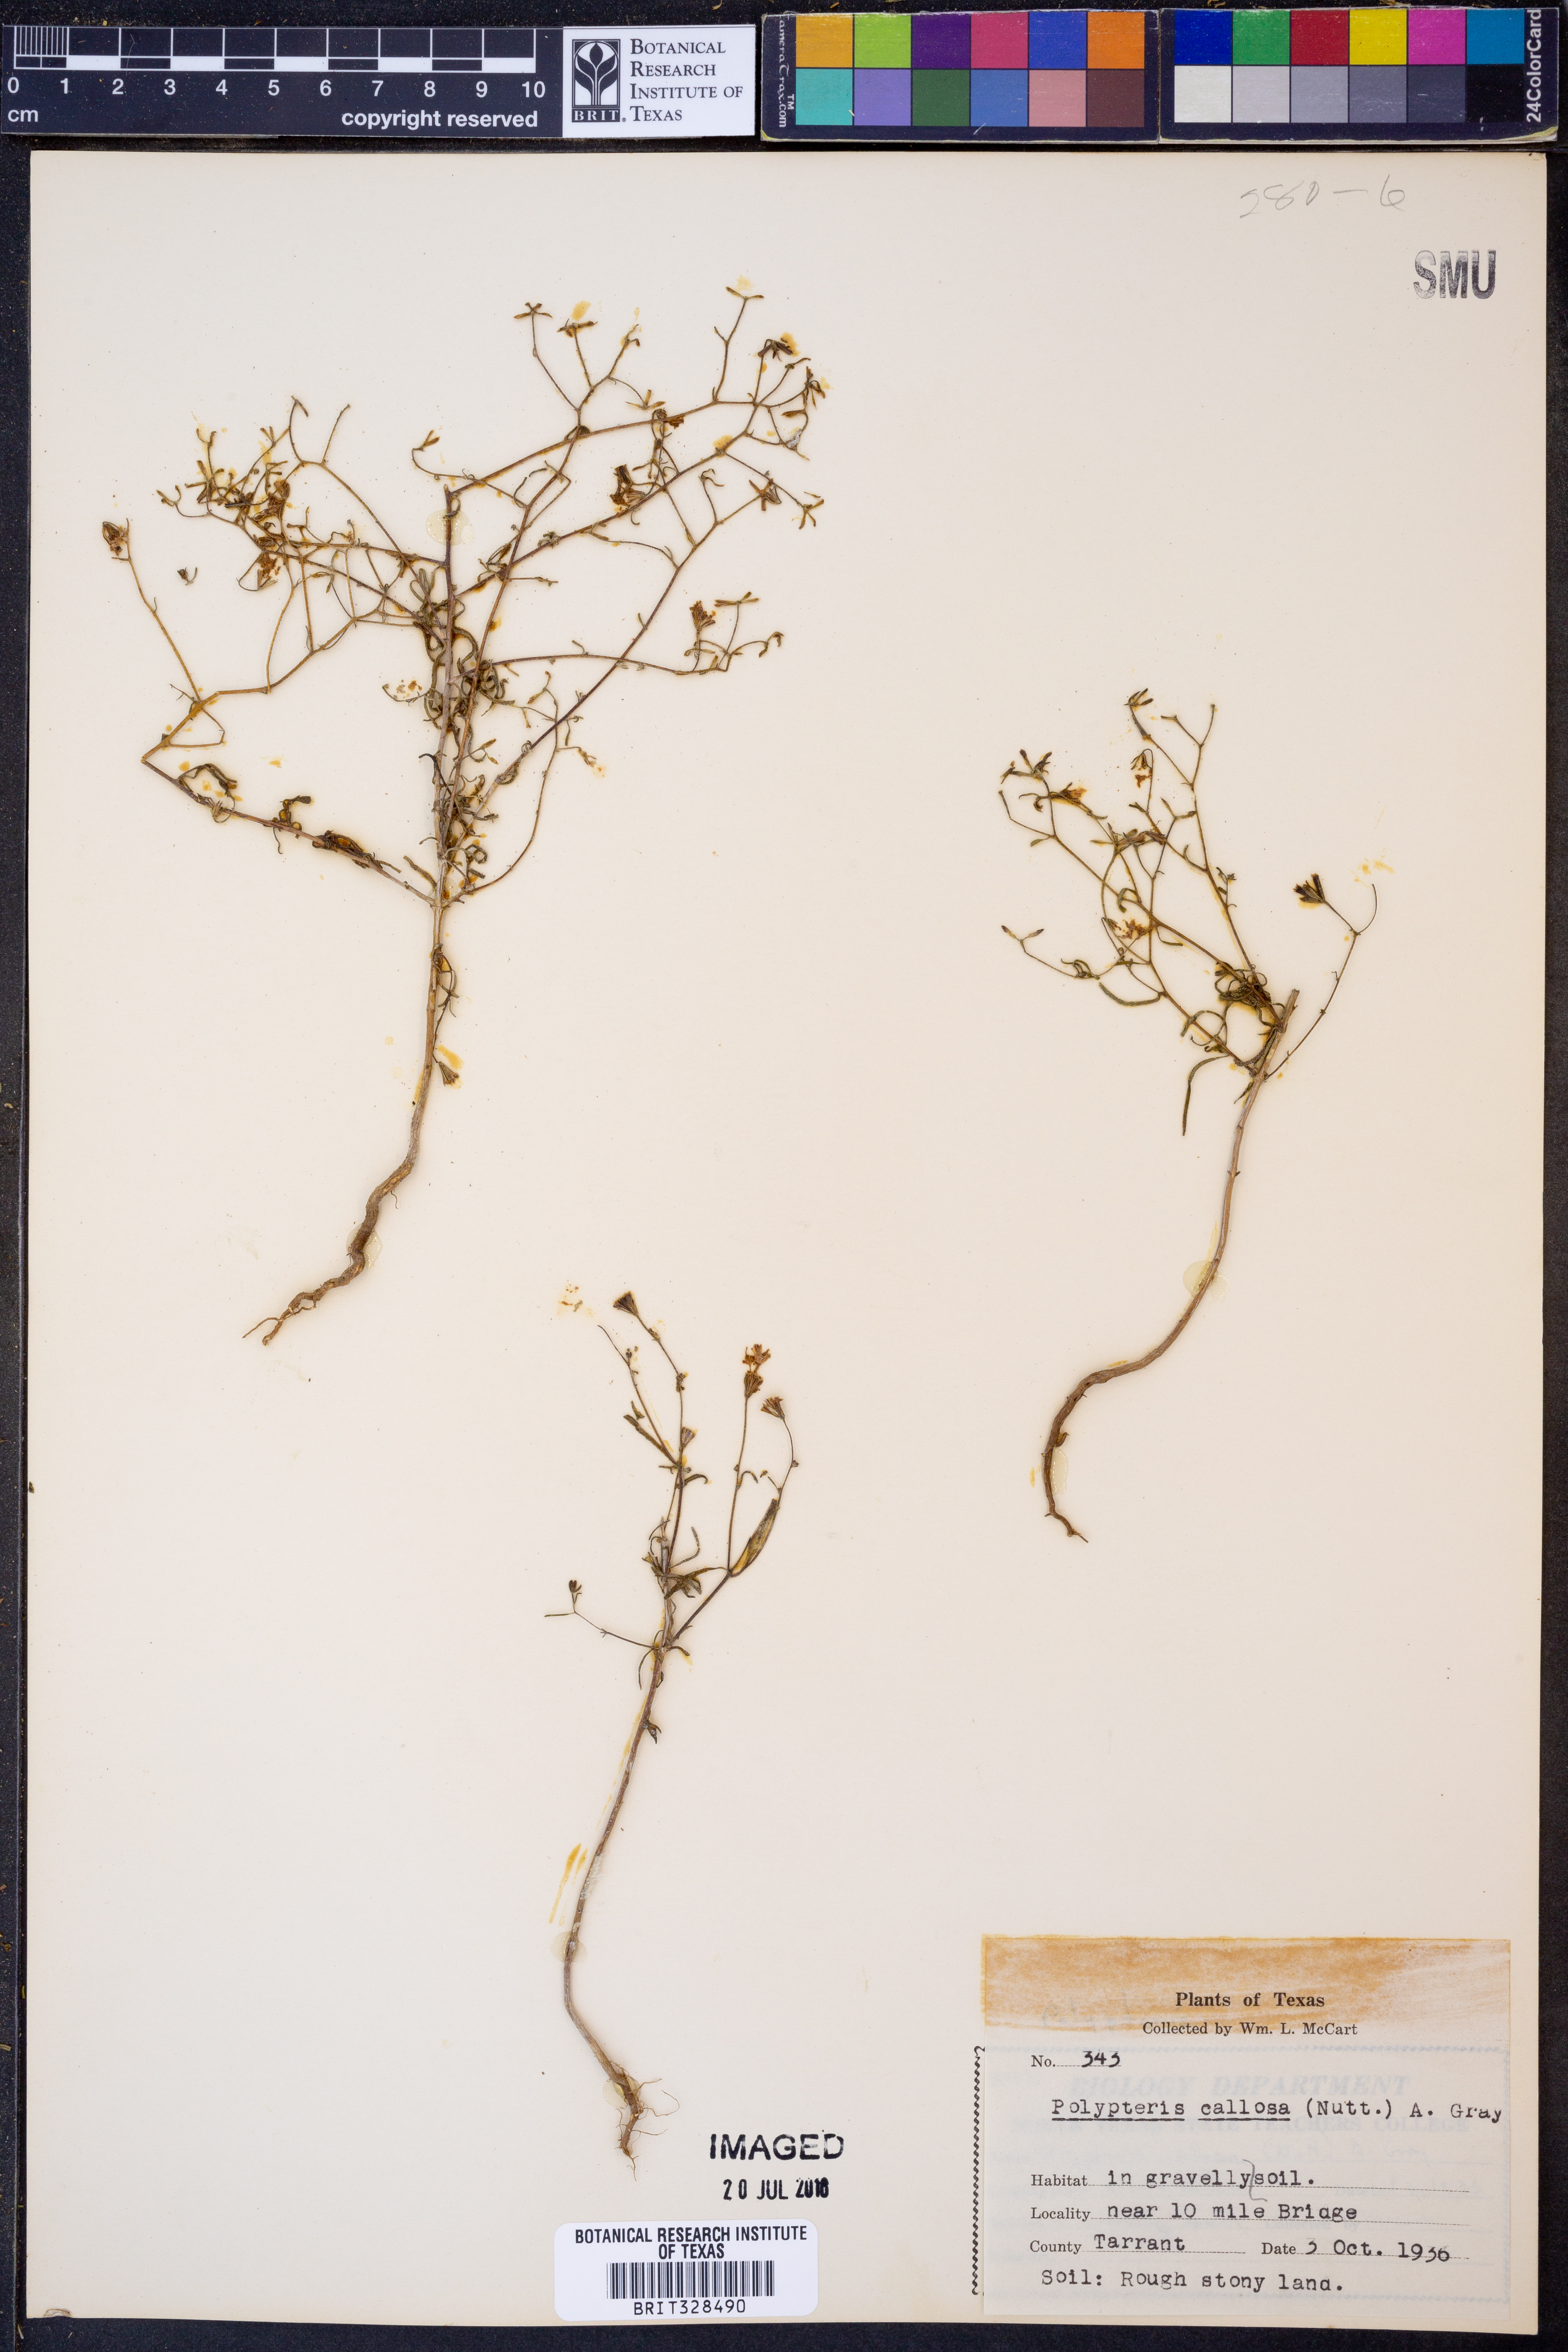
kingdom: Plantae
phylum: Tracheophyta
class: Magnoliopsida
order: Asterales
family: Asteraceae
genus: Palafoxia
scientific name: Palafoxia callosa
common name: Small palafox
